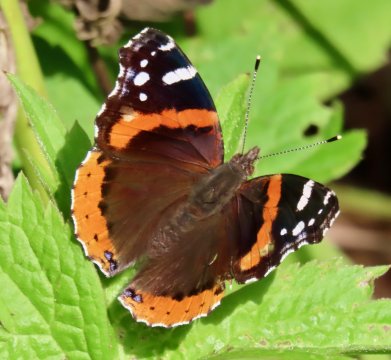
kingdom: Animalia
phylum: Arthropoda
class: Insecta
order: Lepidoptera
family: Nymphalidae
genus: Vanessa
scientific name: Vanessa atalanta
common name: Red Admiral
